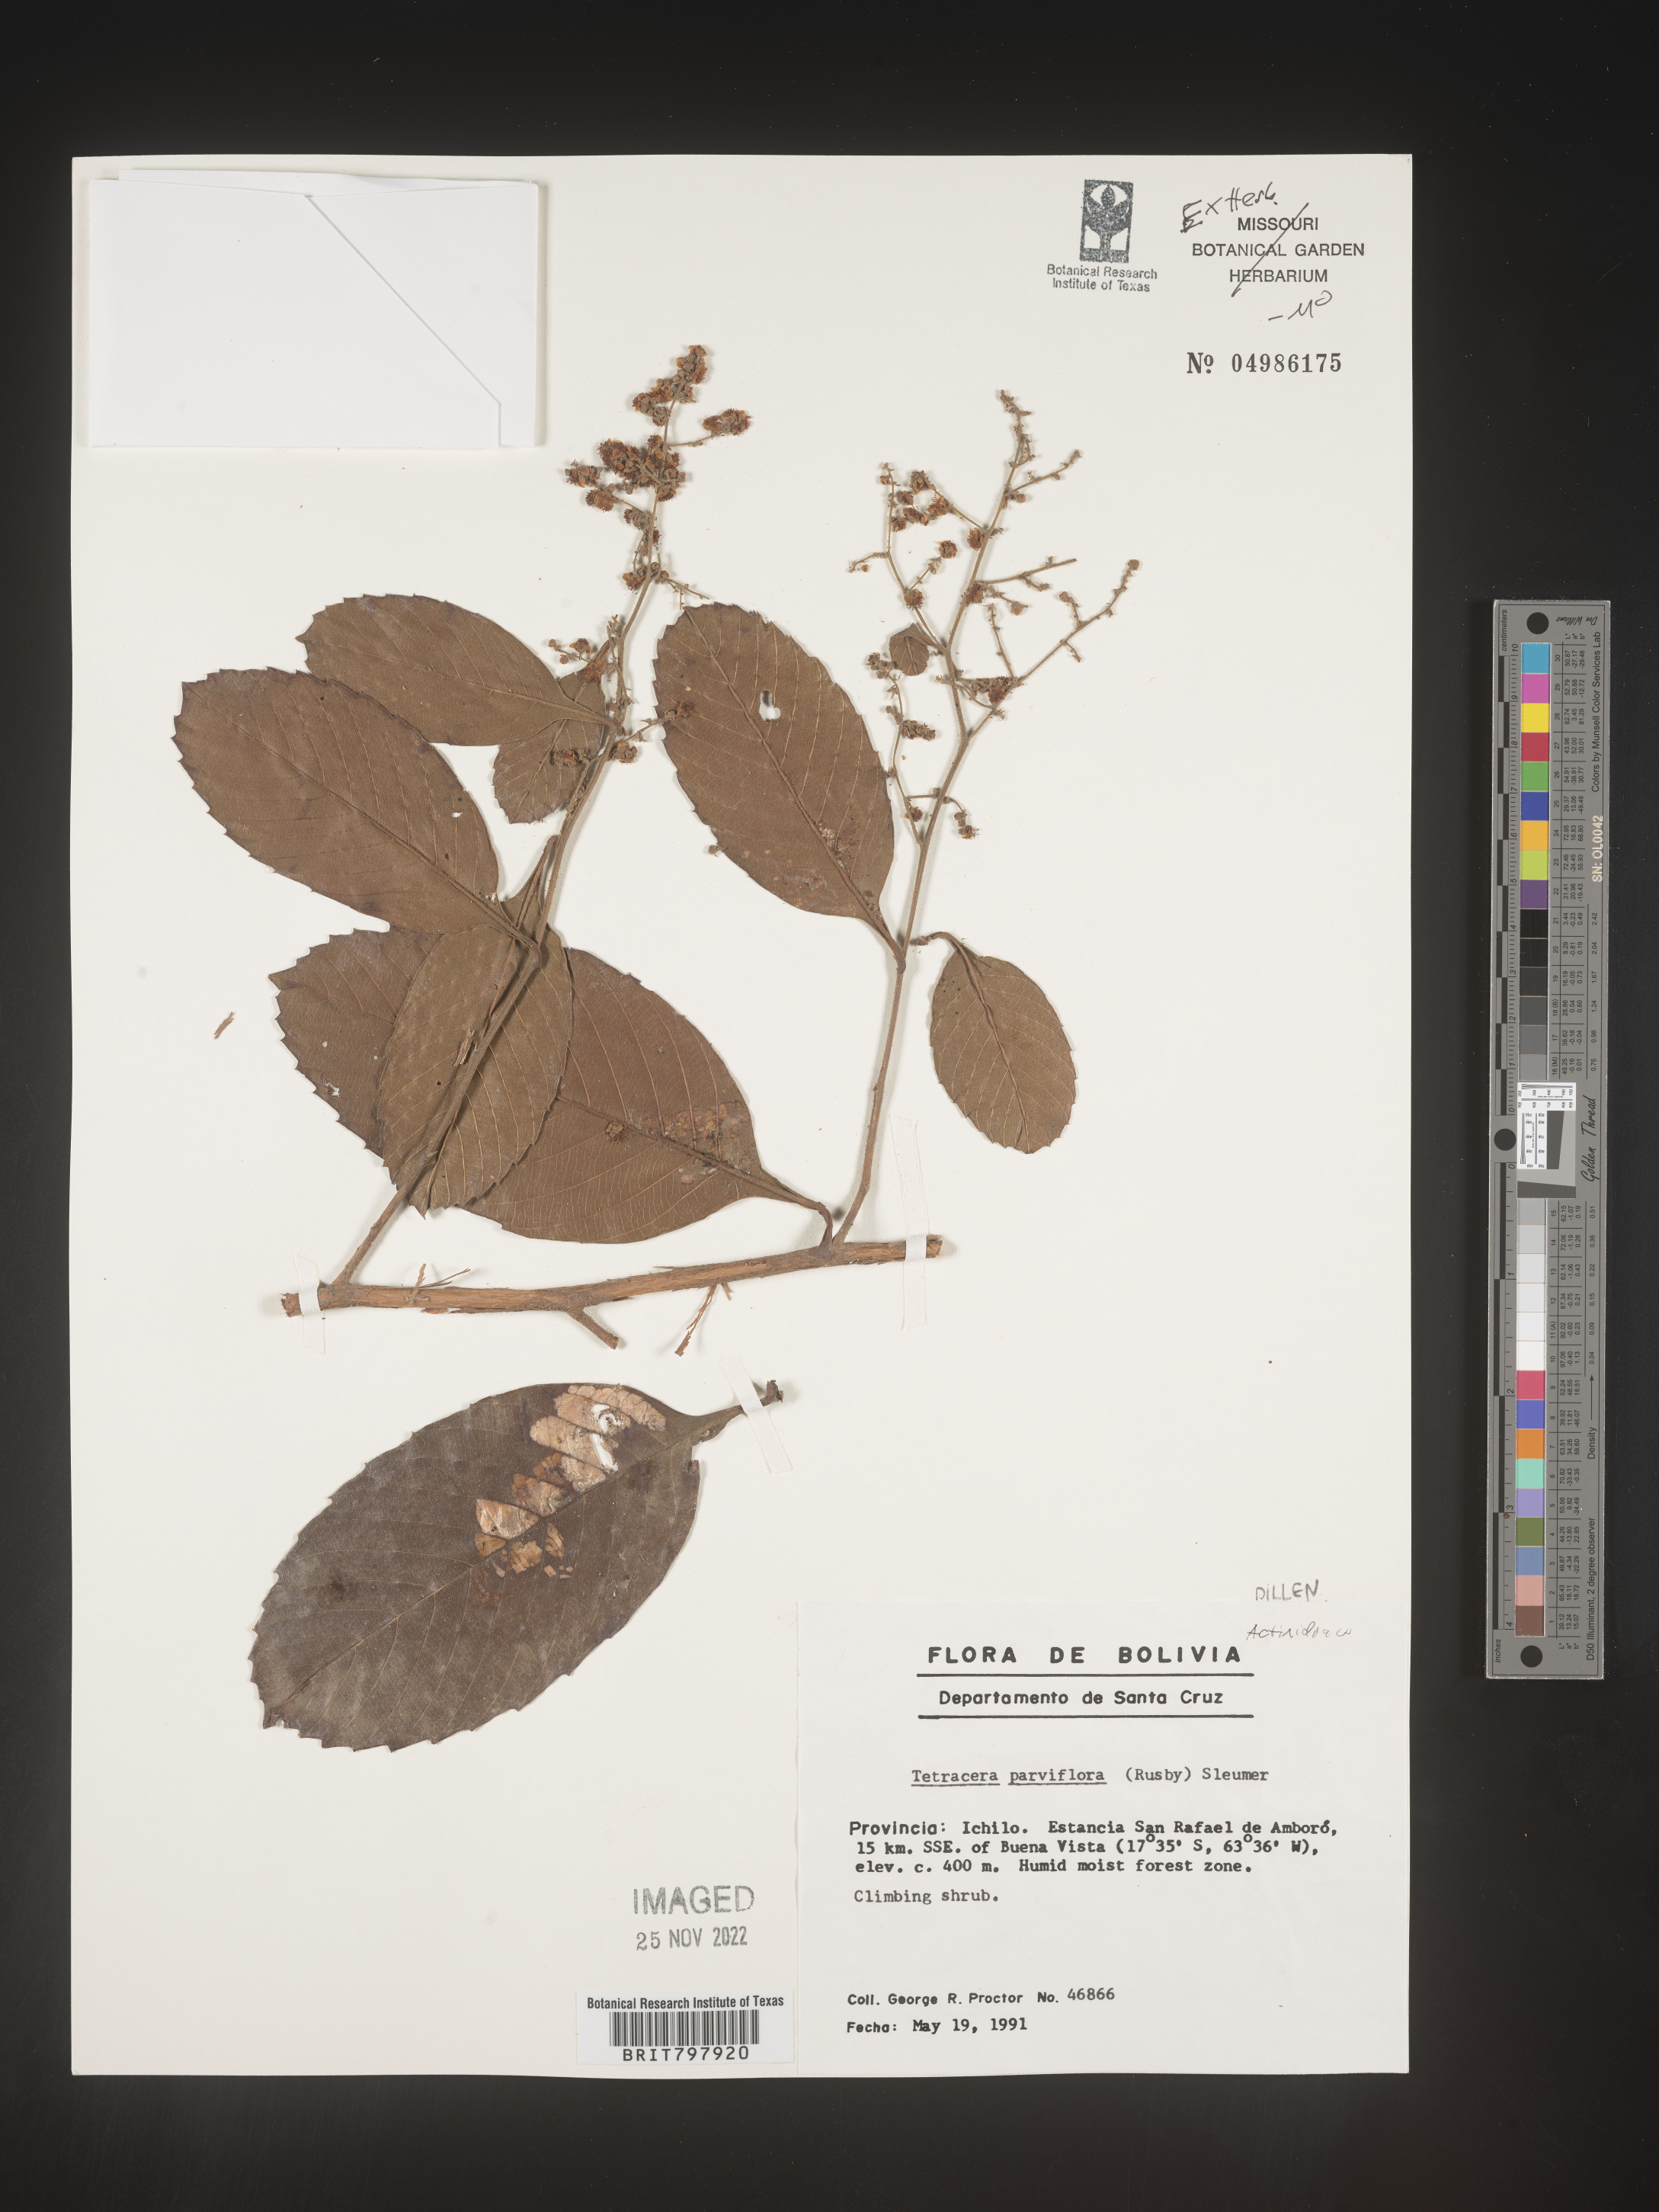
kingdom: Plantae
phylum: Tracheophyta
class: Magnoliopsida
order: Dilleniales
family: Dilleniaceae
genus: Tetracera
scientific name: Tetracera
